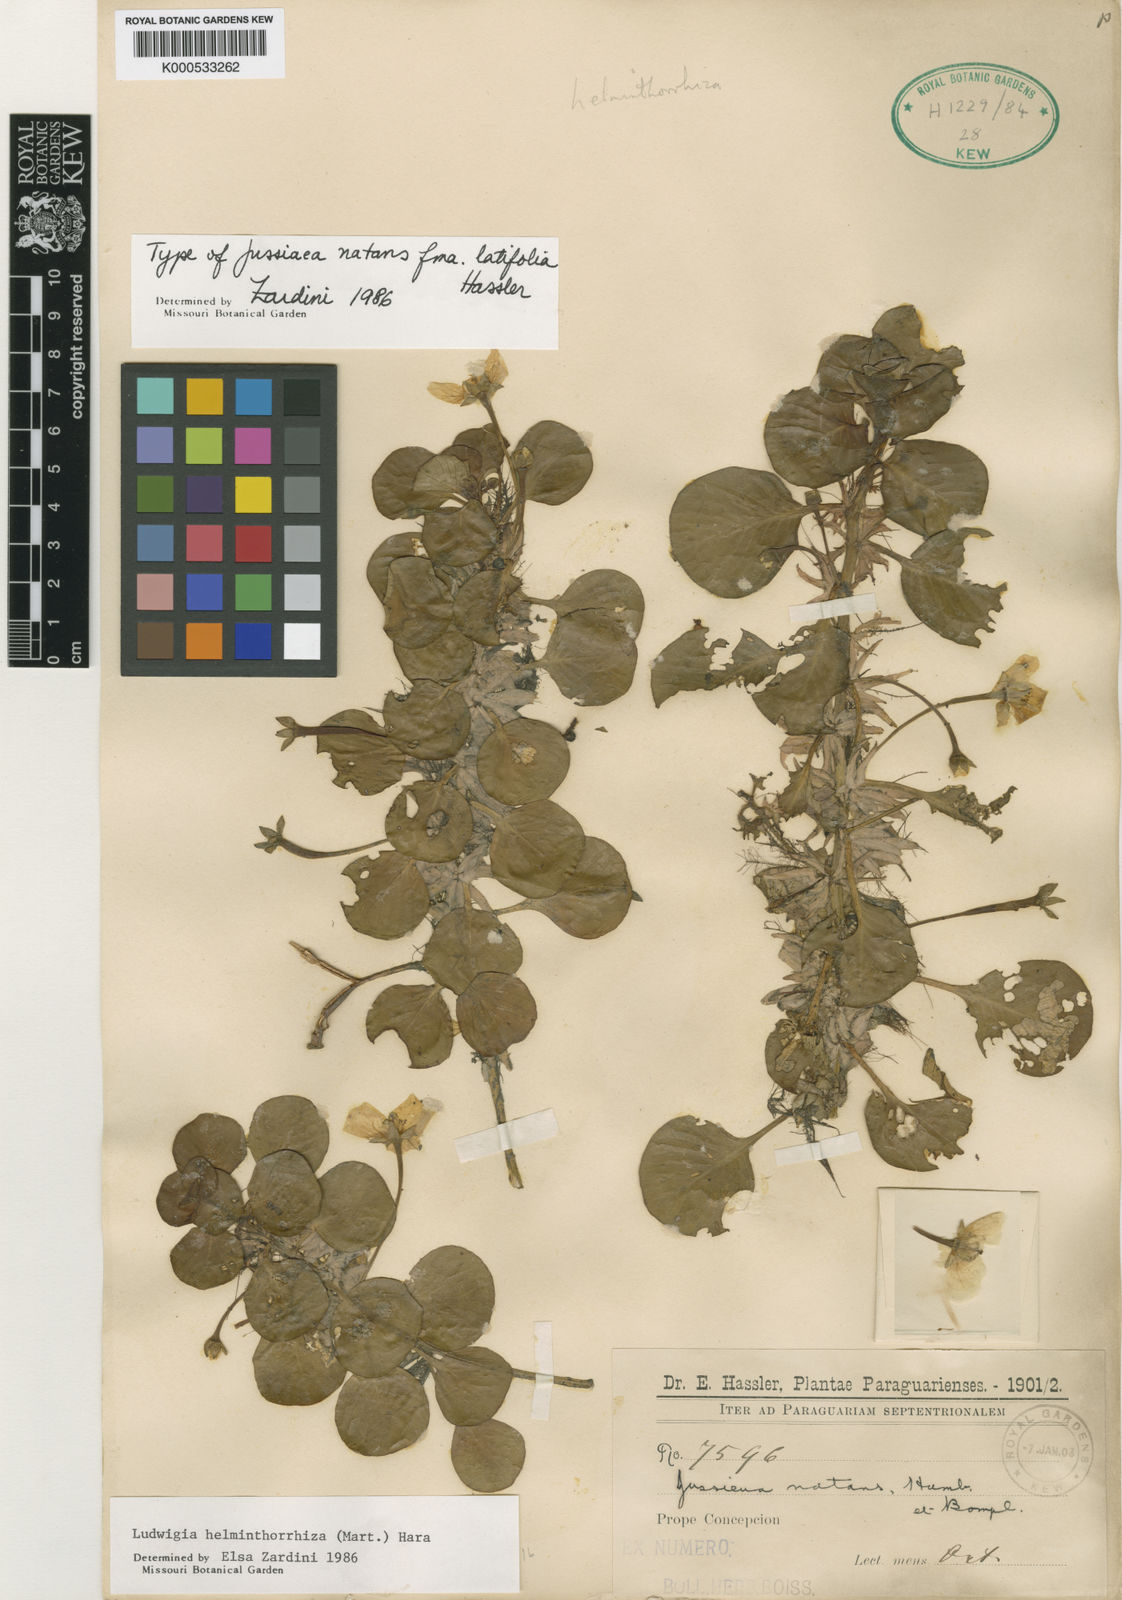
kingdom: Plantae
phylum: Tracheophyta
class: Magnoliopsida
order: Myrtales
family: Onagraceae
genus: Ludwigia
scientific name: Ludwigia helminthorrhiza
